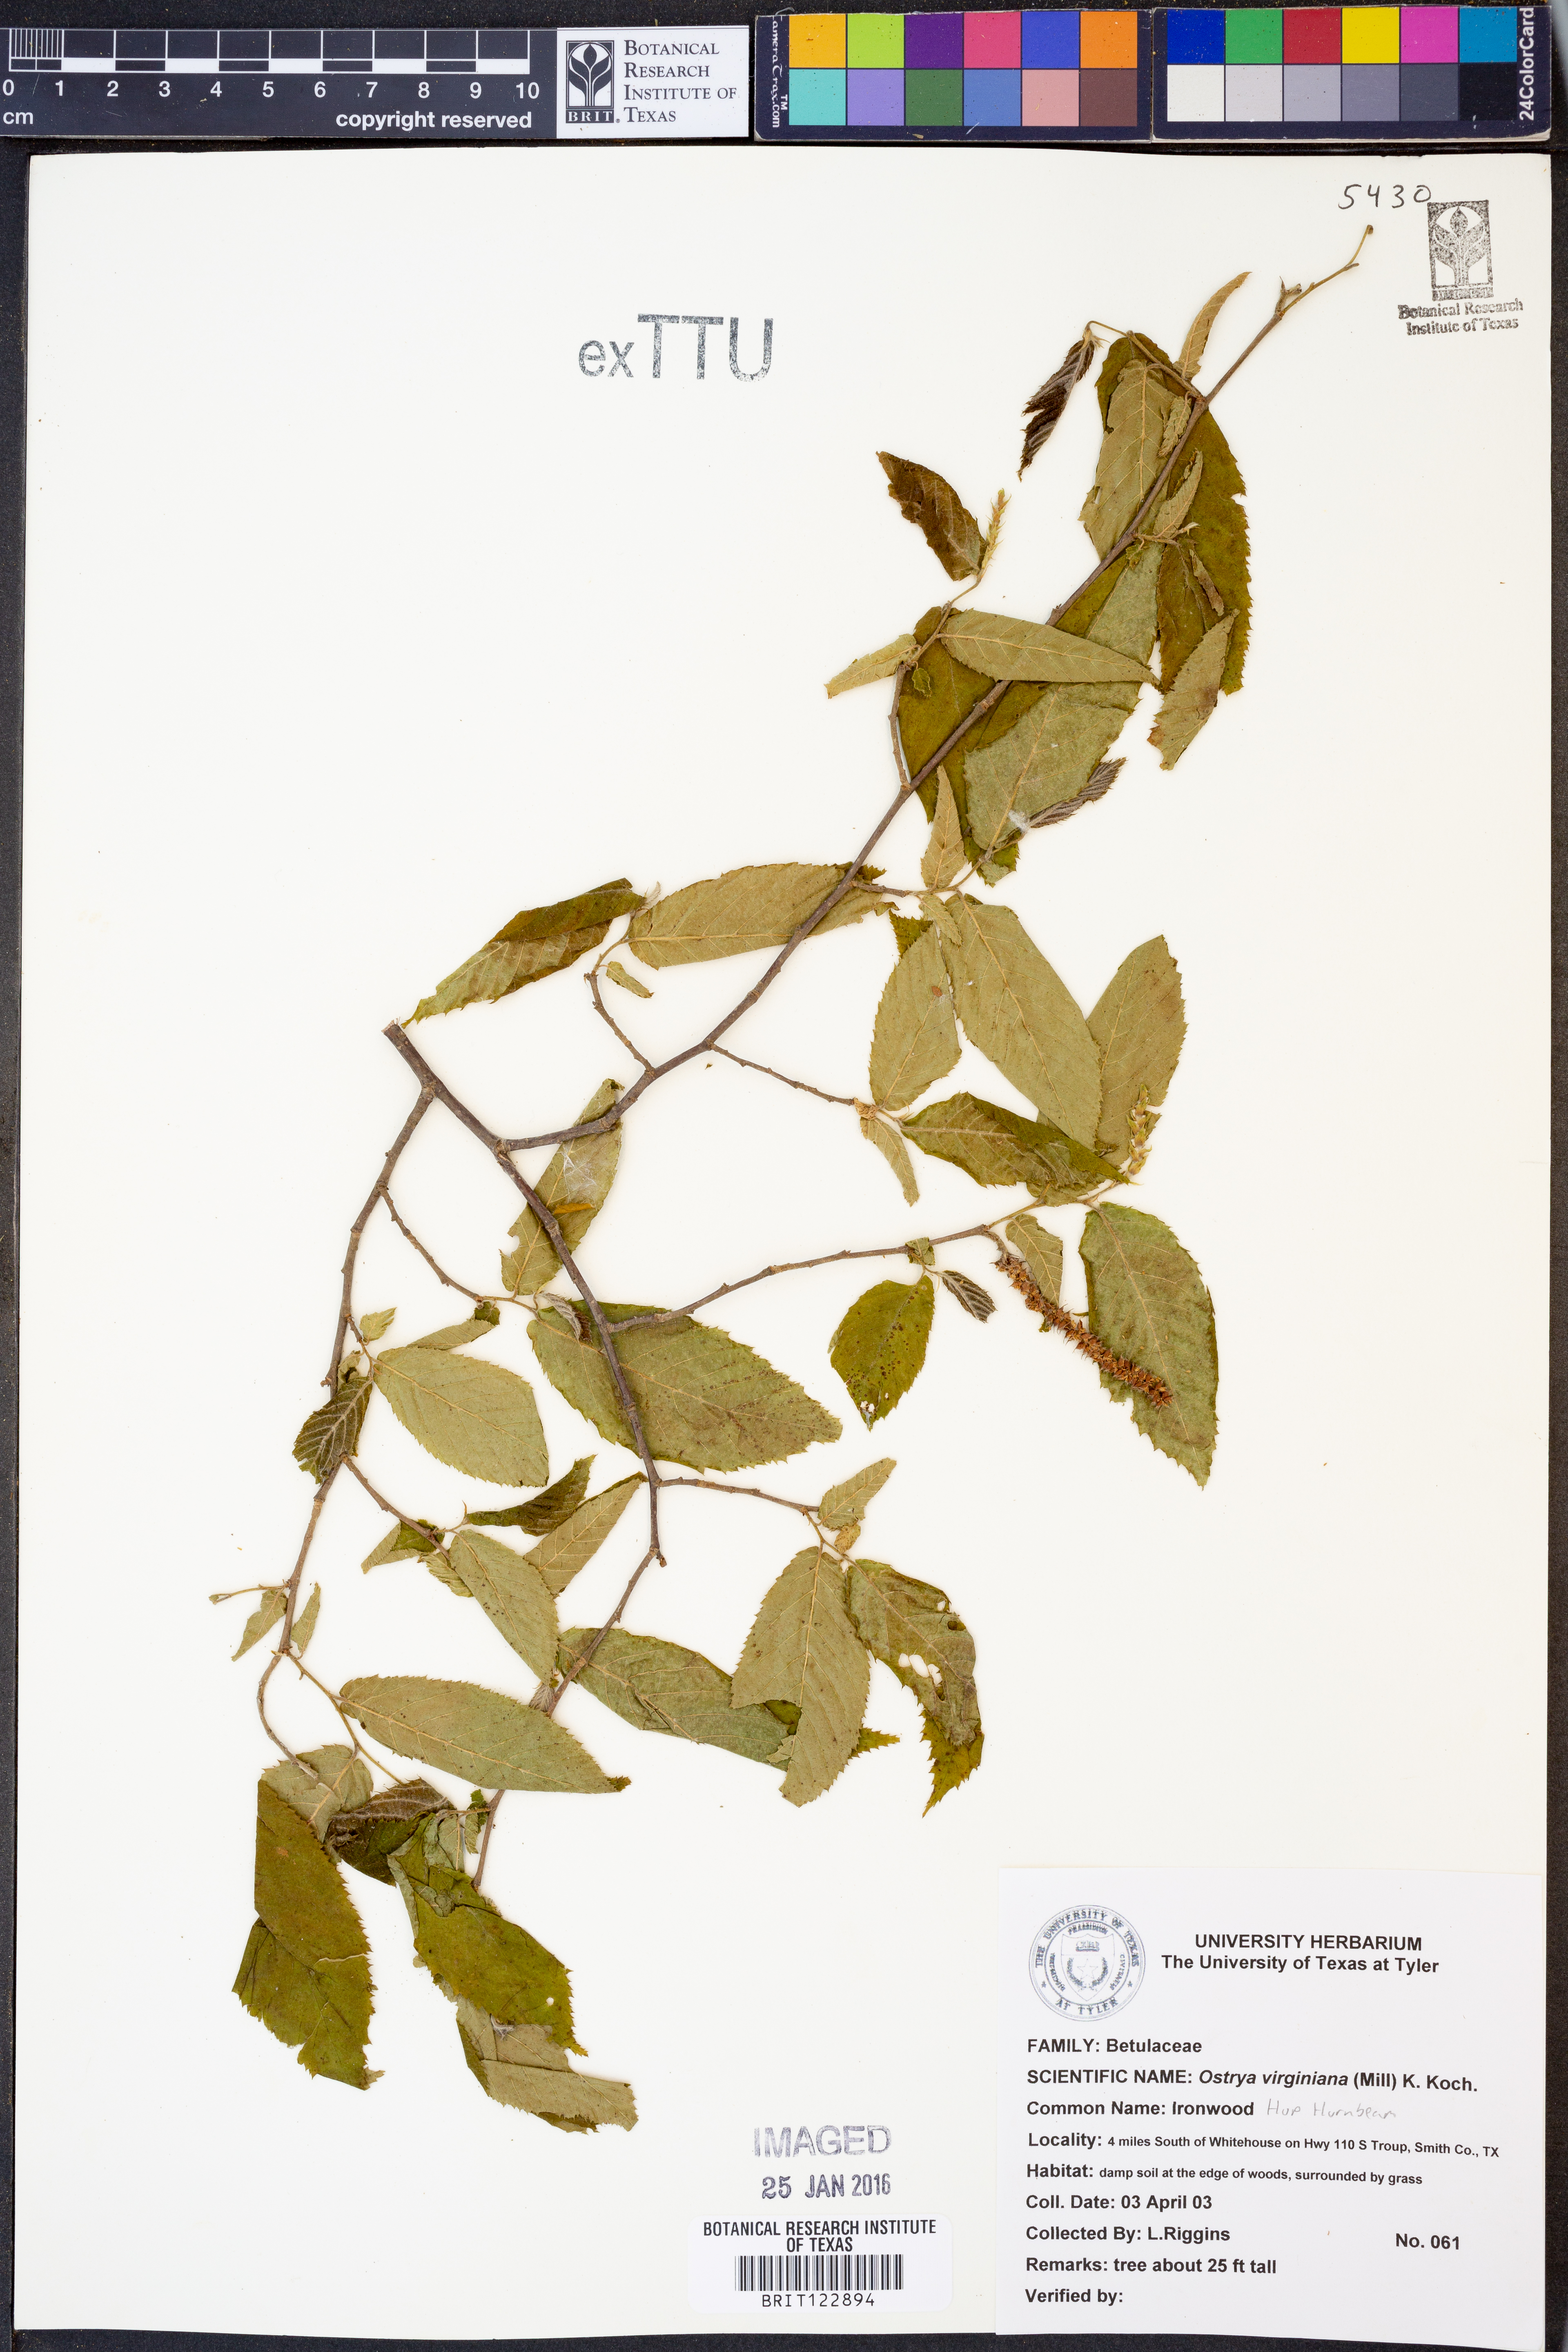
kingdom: Plantae
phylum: Tracheophyta
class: Magnoliopsida
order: Fagales
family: Betulaceae
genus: Ostrya
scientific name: Ostrya virginiana
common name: Ironwood
